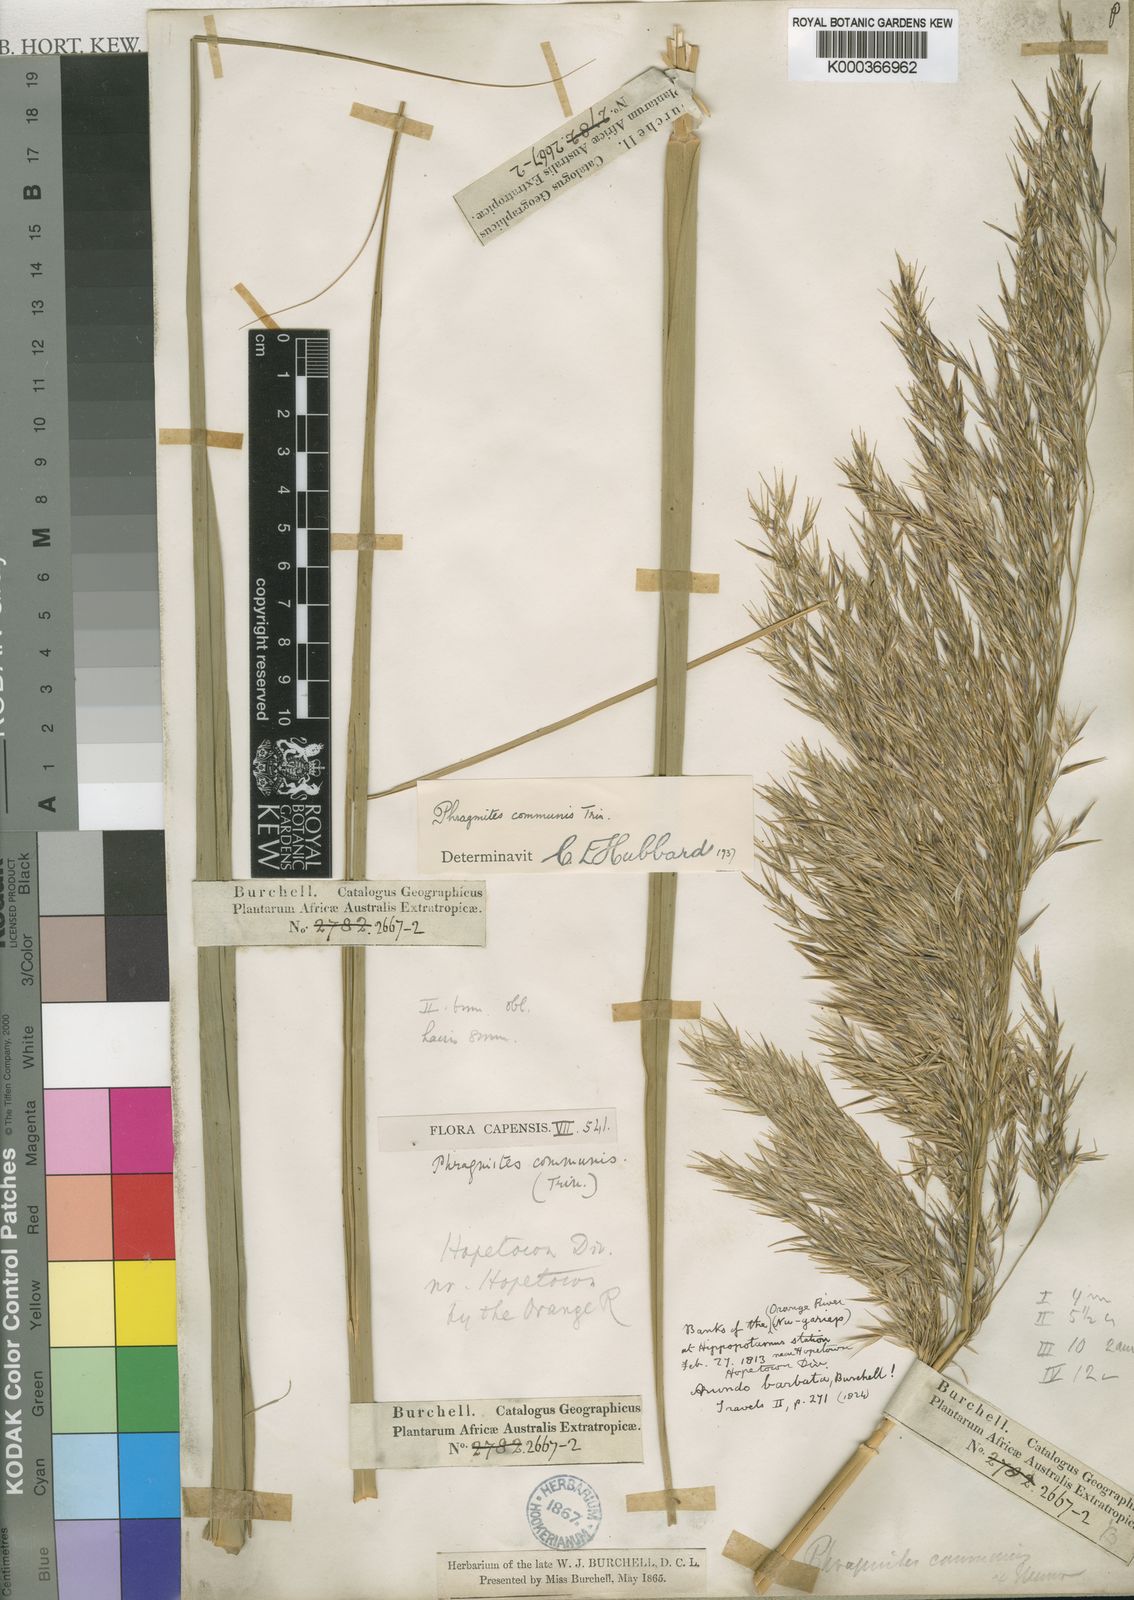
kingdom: Plantae
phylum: Tracheophyta
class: Liliopsida
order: Poales
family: Poaceae
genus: Phragmites
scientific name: Phragmites australis
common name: Common reed
